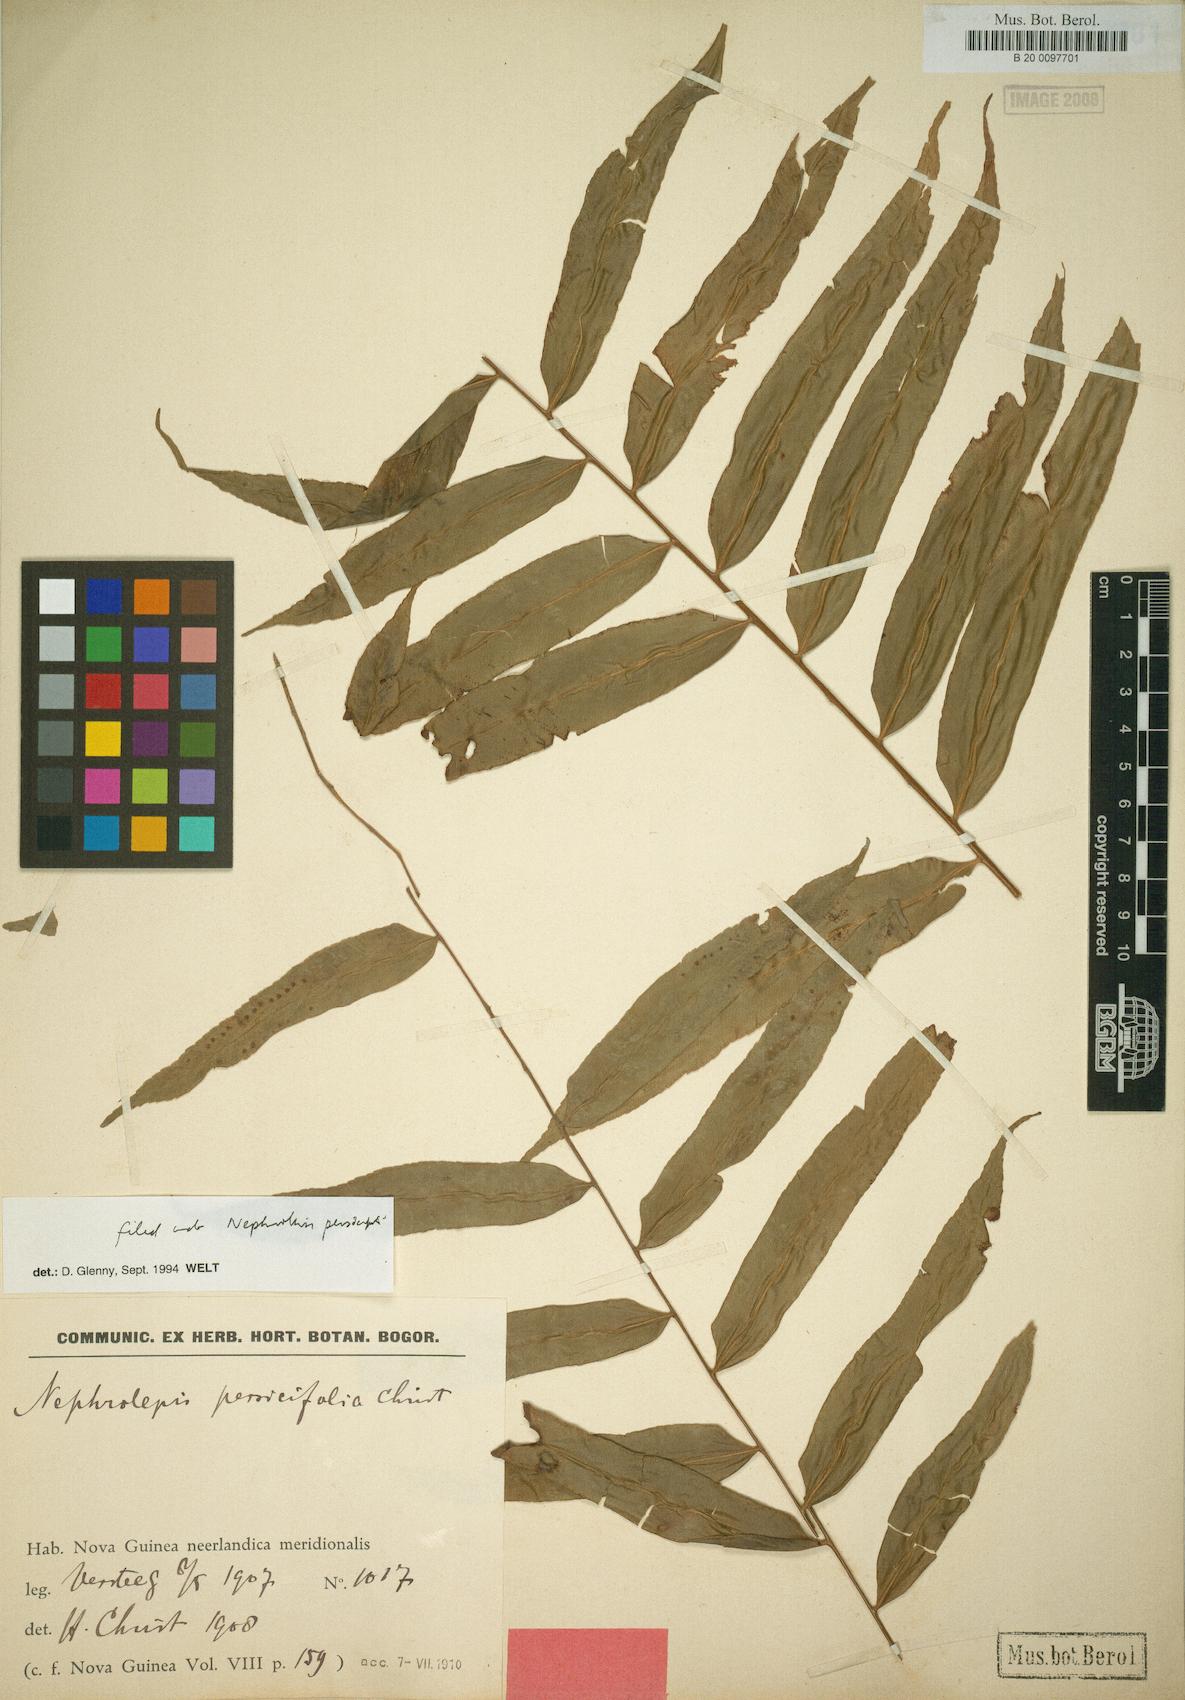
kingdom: Plantae
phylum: Tracheophyta
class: Polypodiopsida
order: Polypodiales
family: Nephrolepidaceae
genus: Nephrolepis
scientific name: Nephrolepis biserrata
